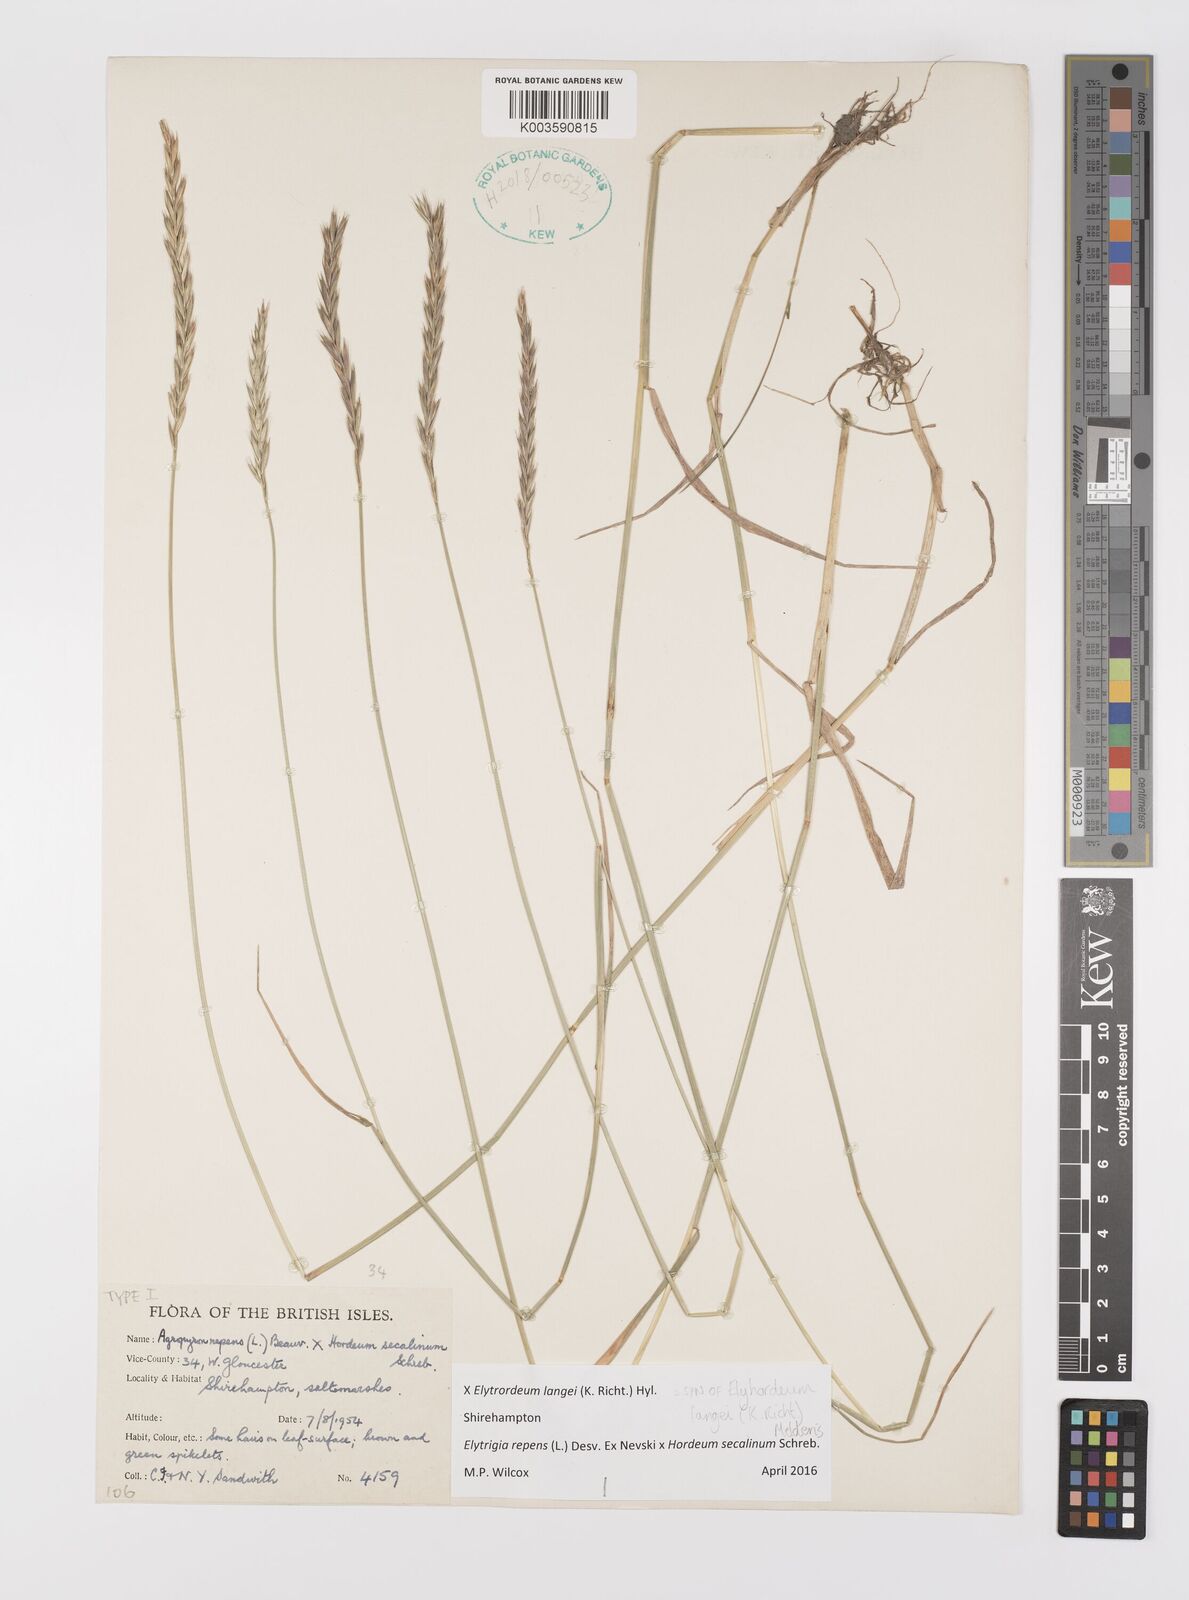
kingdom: Plantae
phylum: Tracheophyta
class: Liliopsida
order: Poales
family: Poaceae
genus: Elyhordeum
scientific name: Elyhordeum langei
